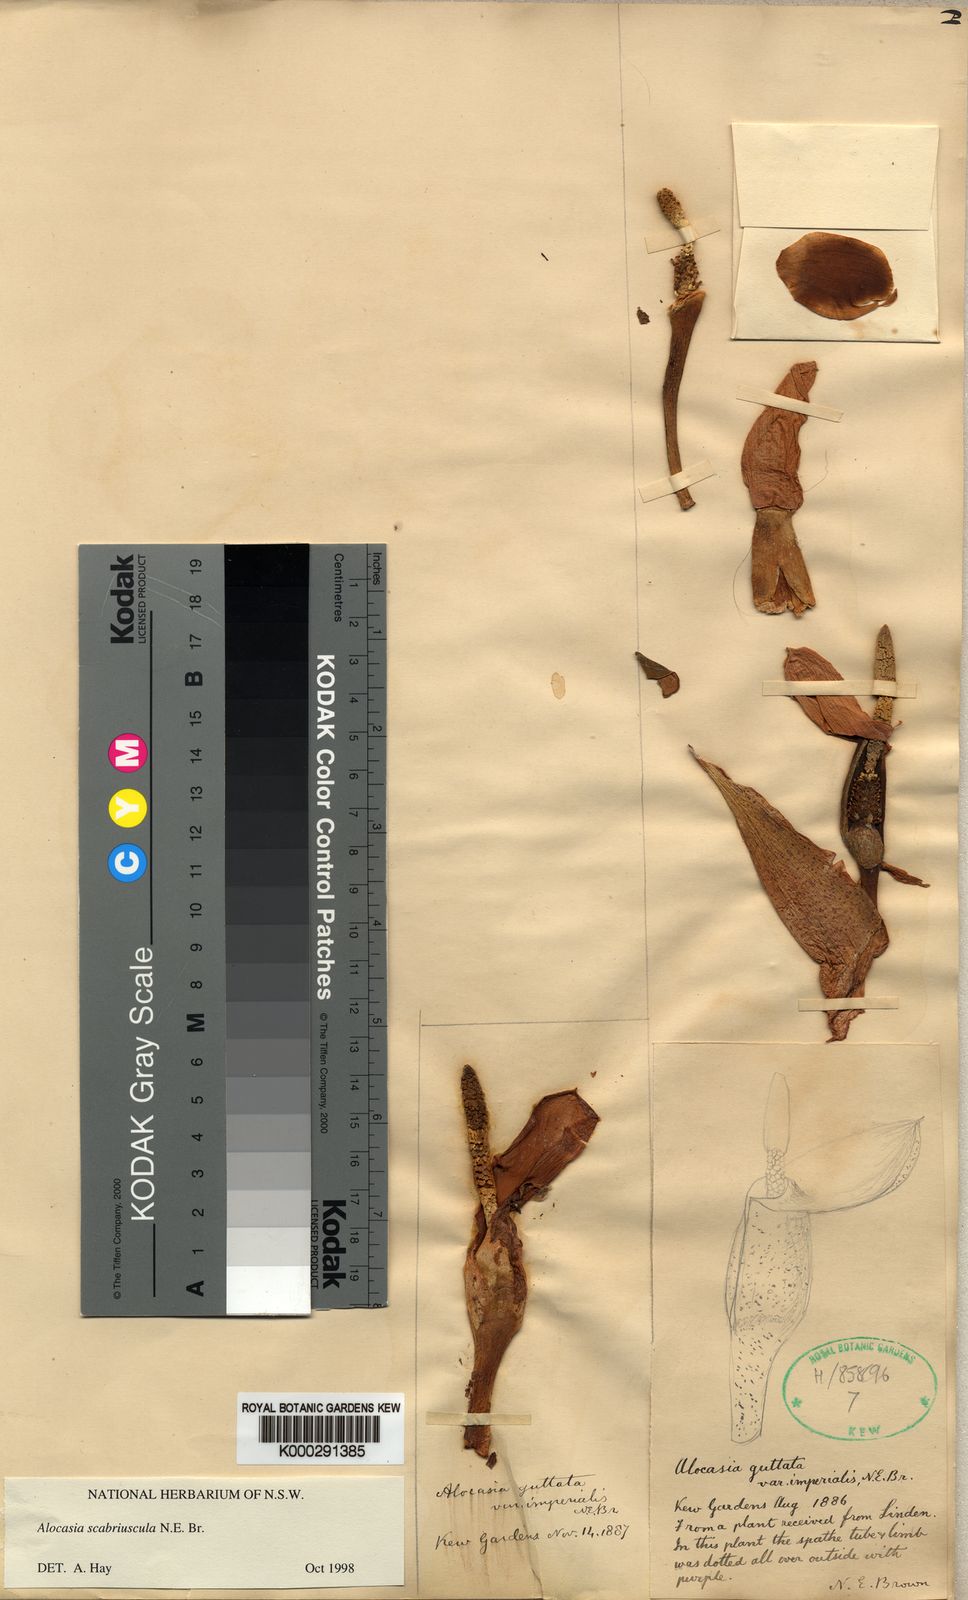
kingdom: Plantae
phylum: Tracheophyta
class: Liliopsida
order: Alismatales
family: Araceae
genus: Alocasia
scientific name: Alocasia scabriuscula
